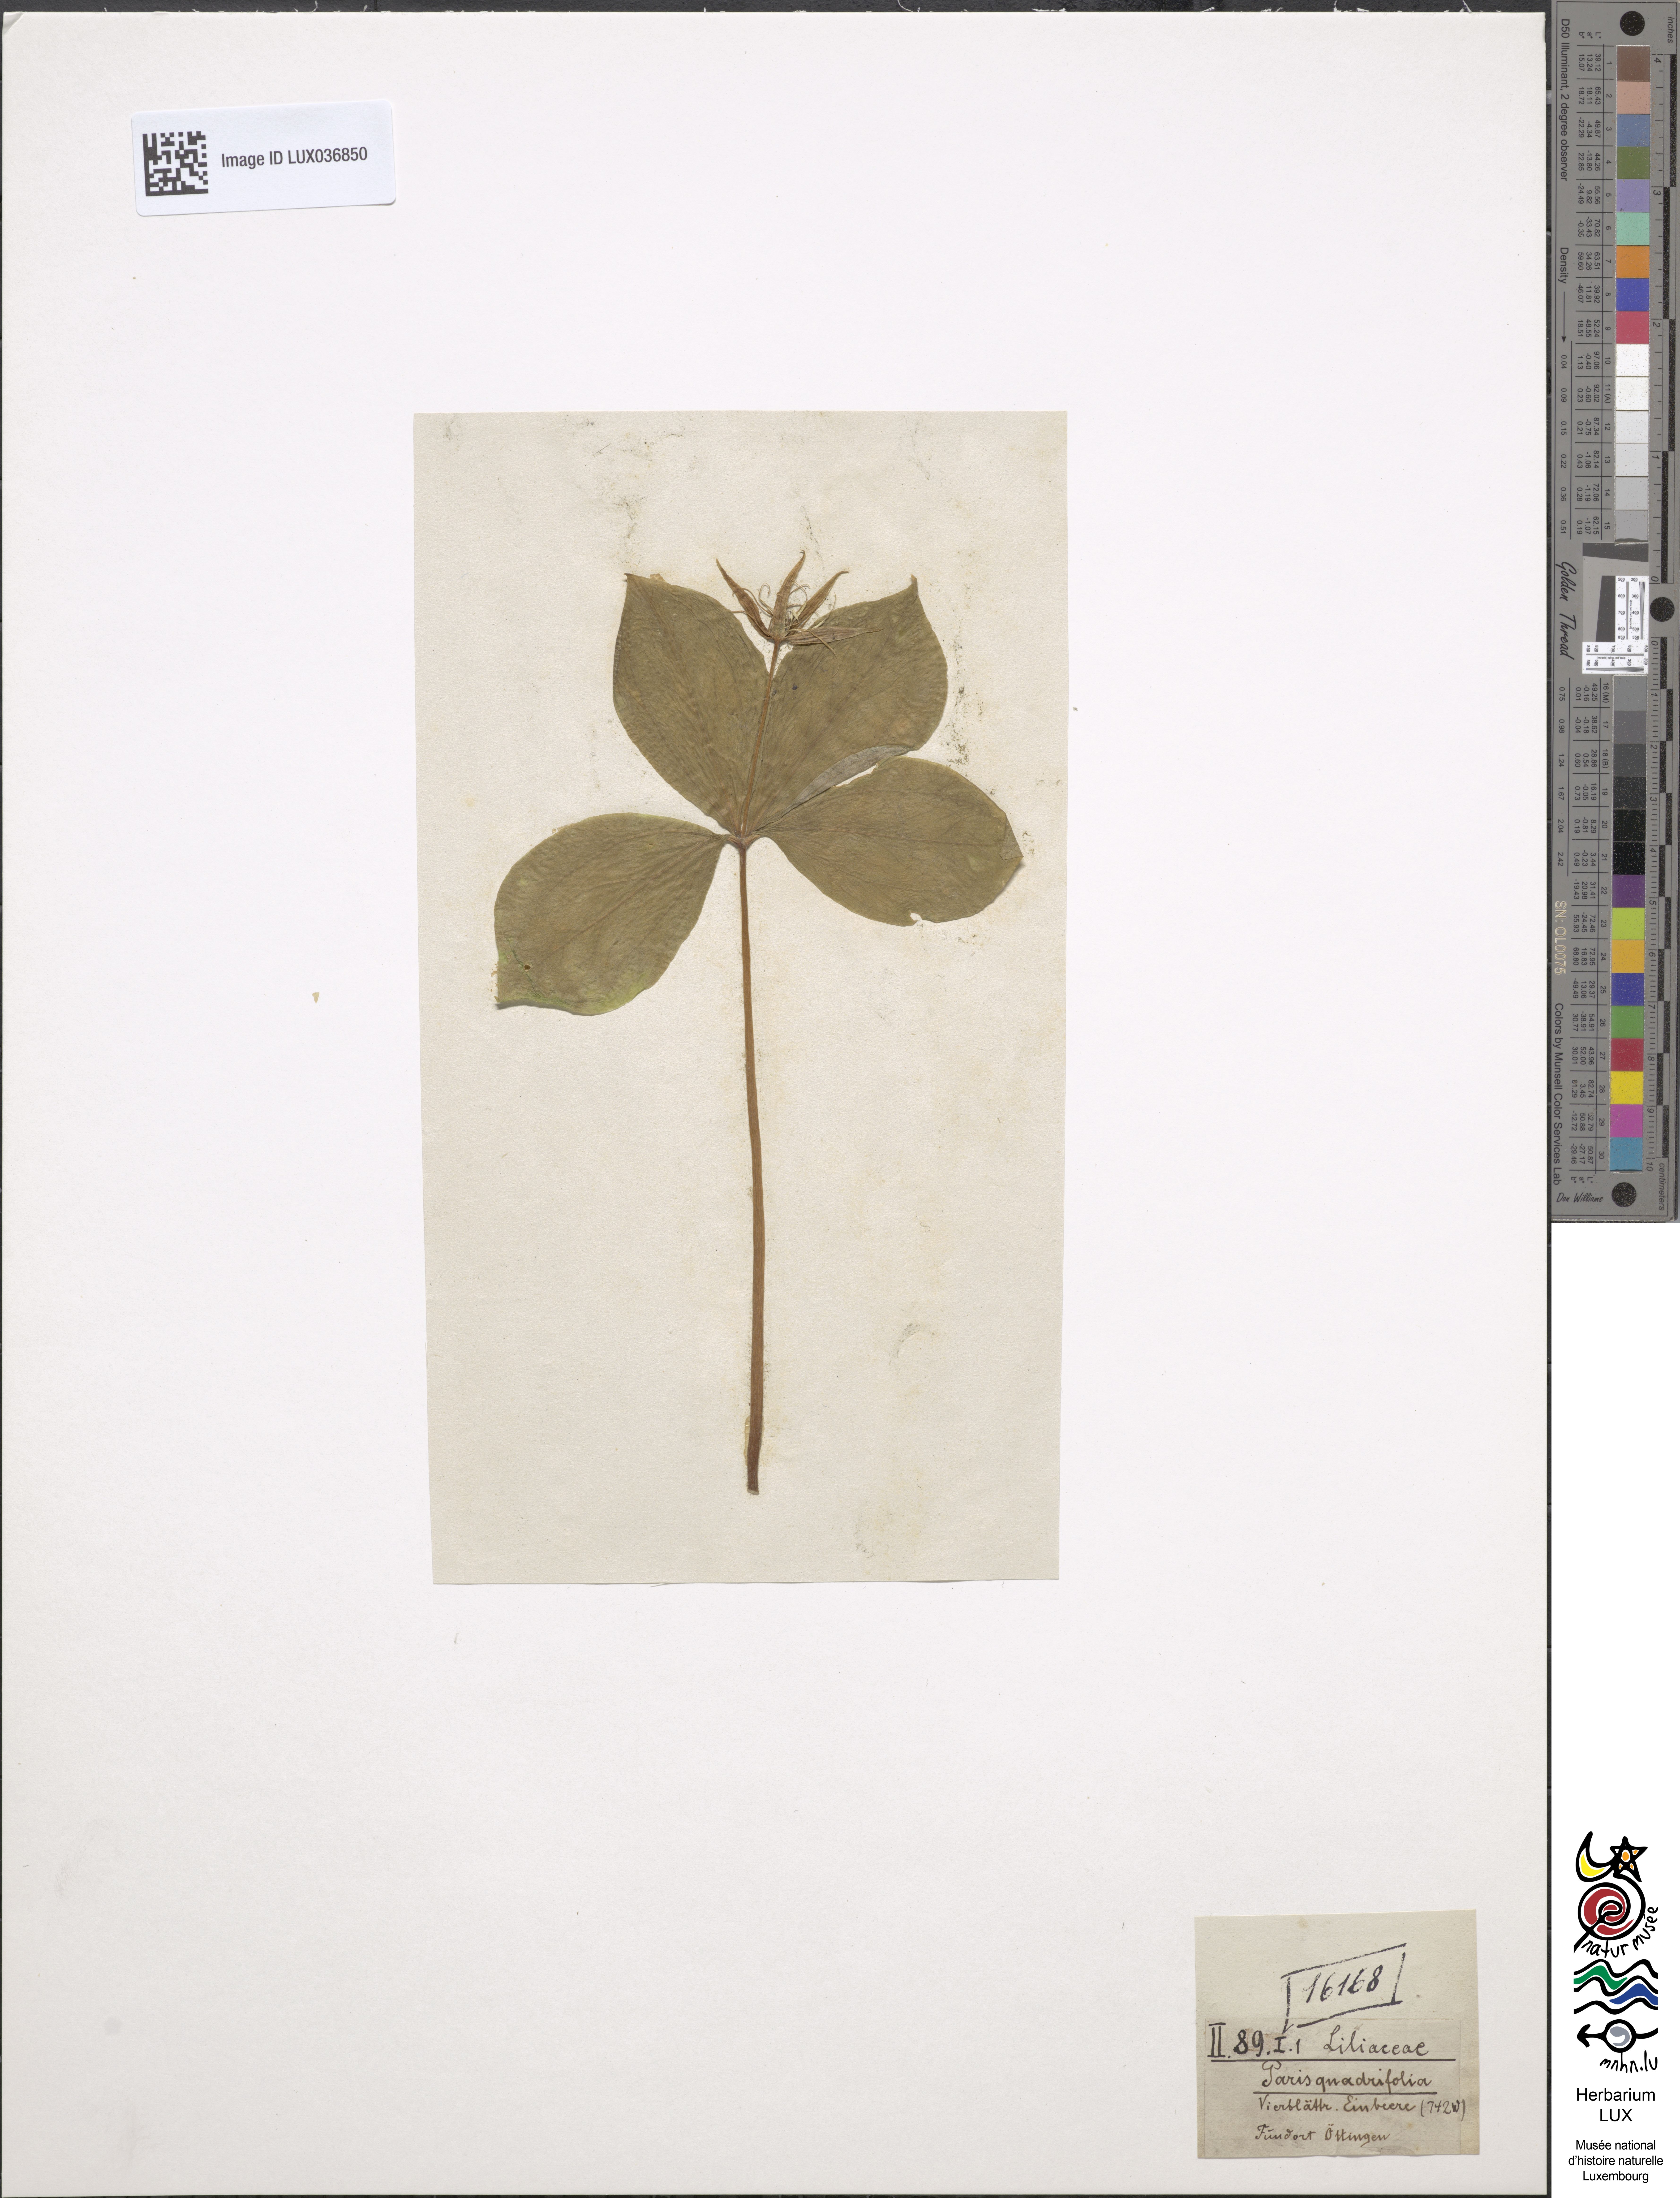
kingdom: Plantae
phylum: Tracheophyta
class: Liliopsida
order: Liliales
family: Melanthiaceae
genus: Paris
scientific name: Paris quadrifolia
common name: Herb-paris
